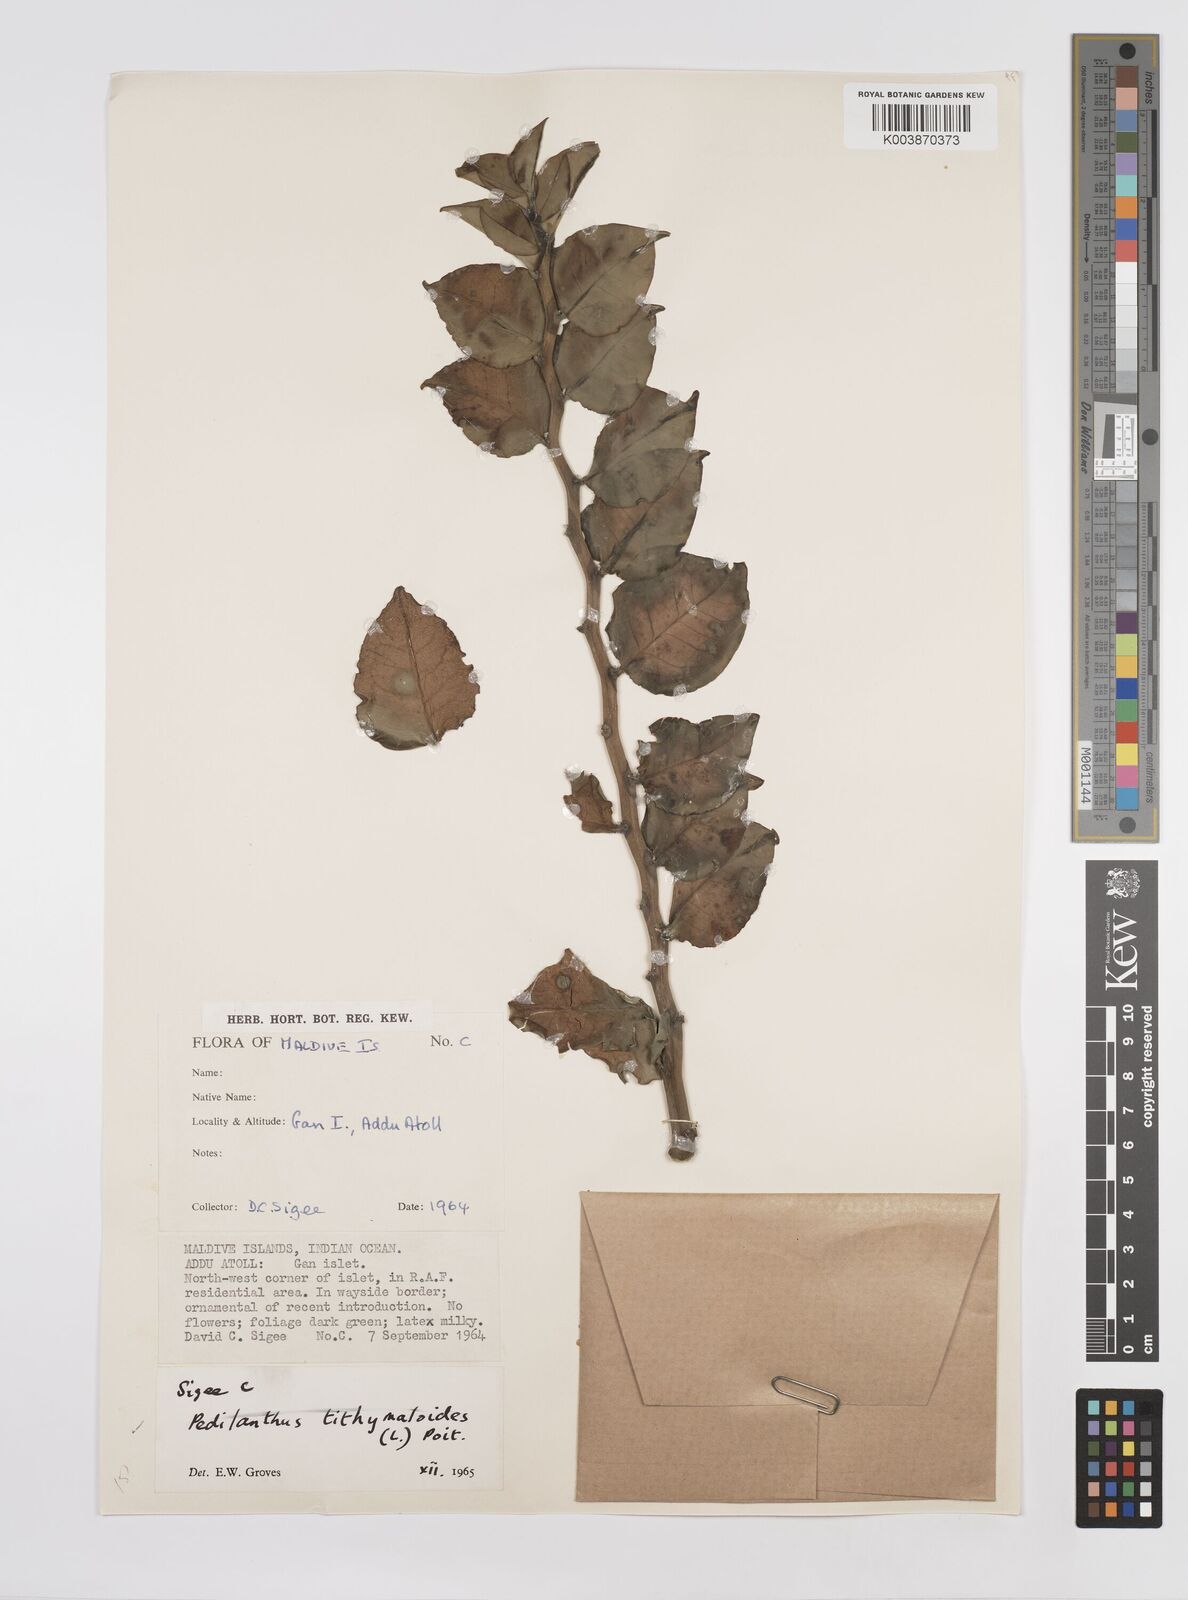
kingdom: Plantae
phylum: Tracheophyta
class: Magnoliopsida
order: Malpighiales
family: Euphorbiaceae
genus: Euphorbia
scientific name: Euphorbia tithymaloides
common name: Slipperplant
